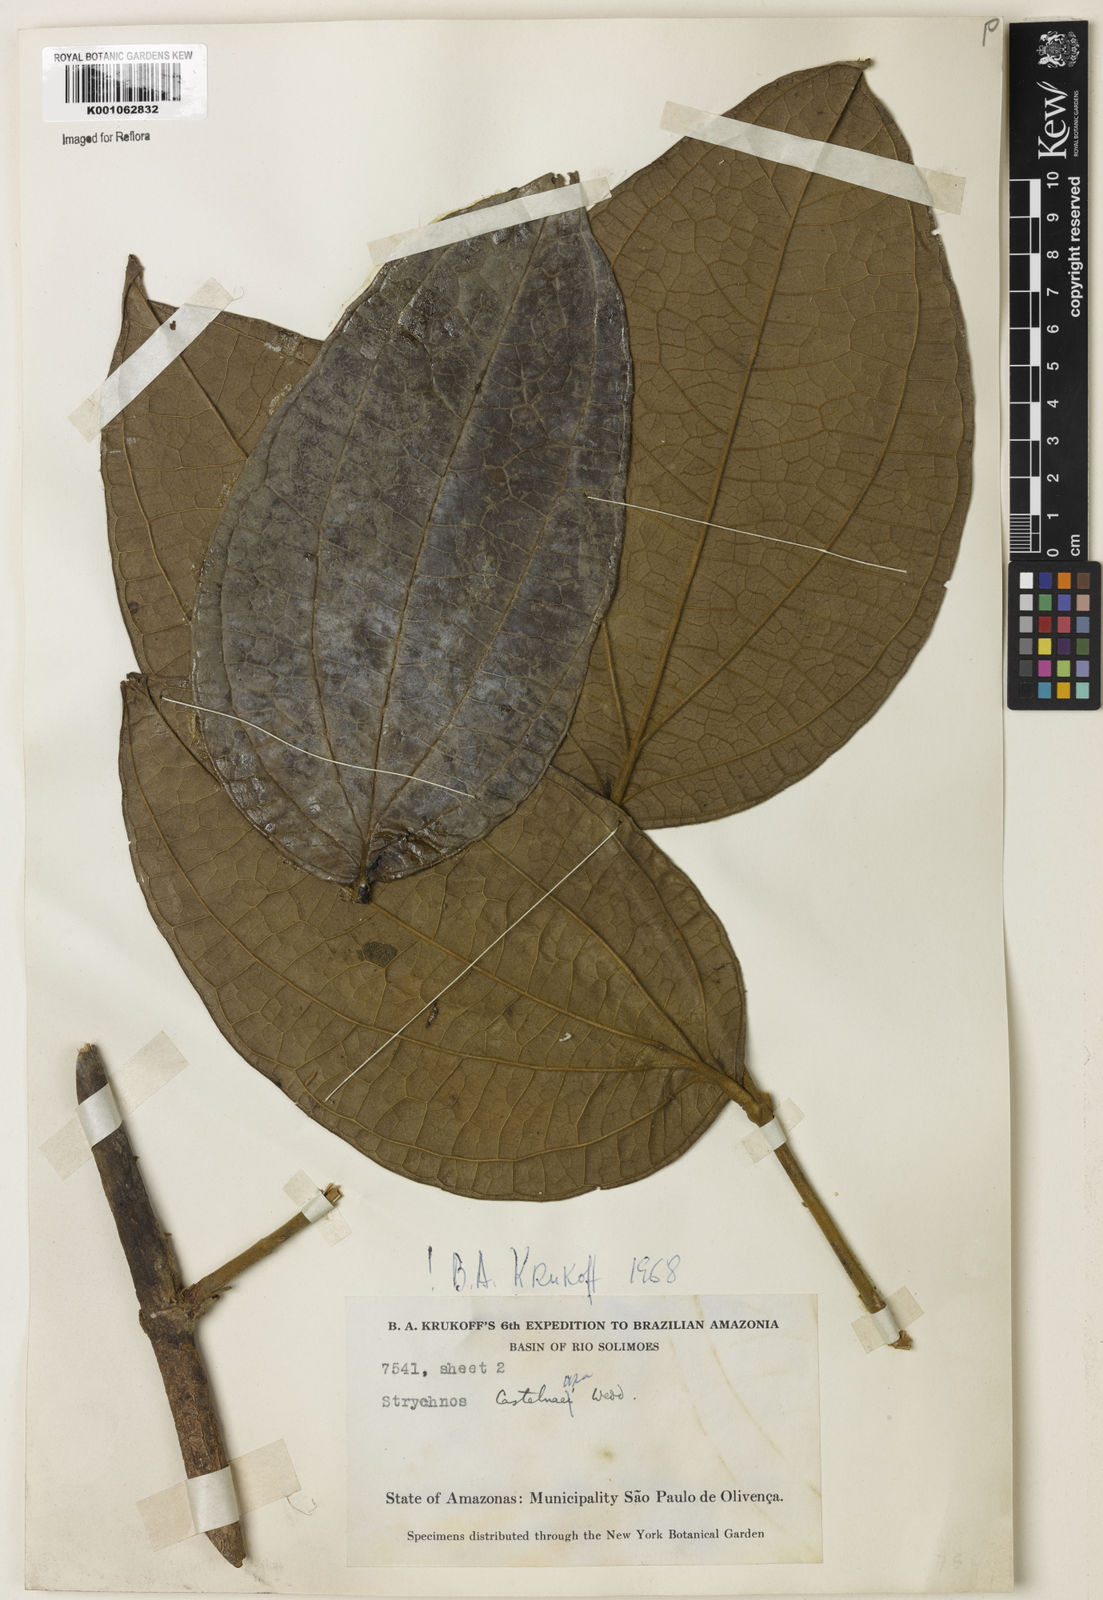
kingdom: Plantae
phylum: Tracheophyta
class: Magnoliopsida
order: Gentianales
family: Loganiaceae
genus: Strychnos
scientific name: Strychnos
